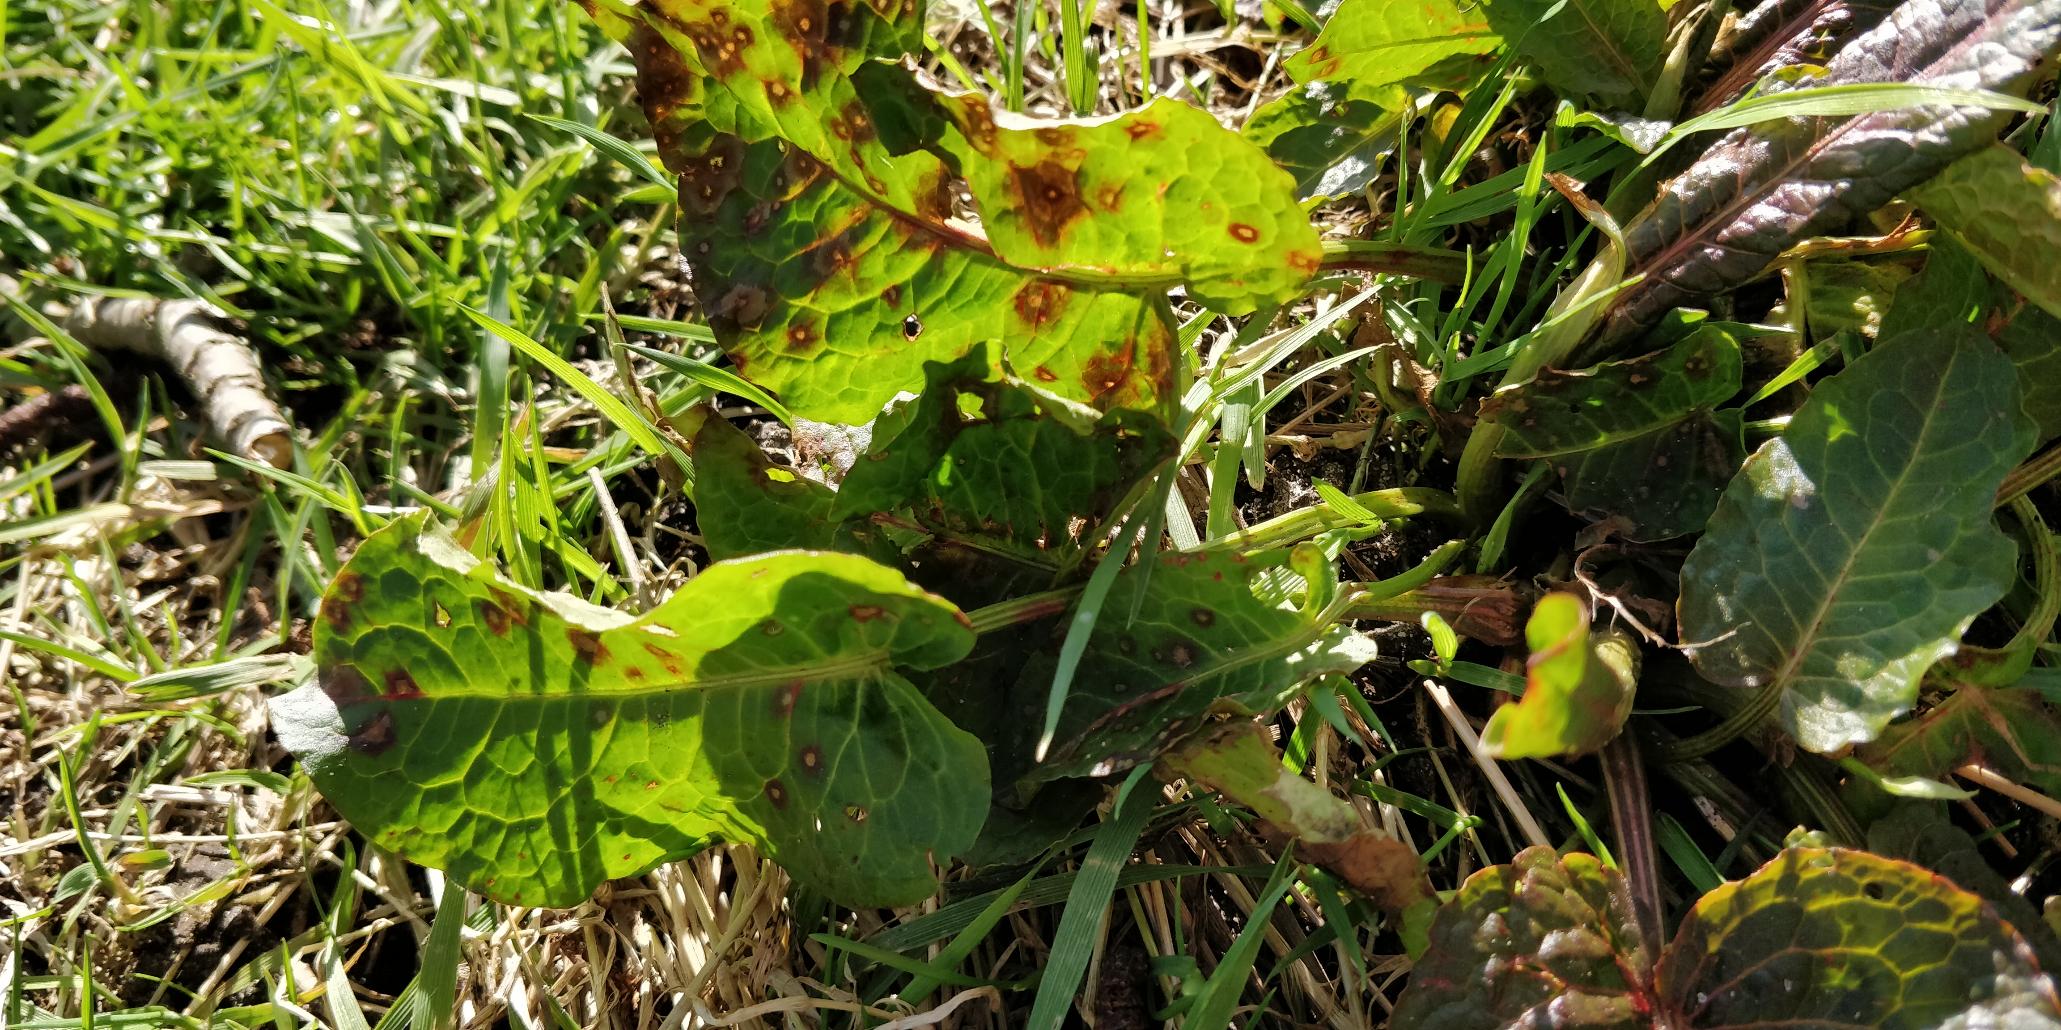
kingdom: Plantae
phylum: Tracheophyta
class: Magnoliopsida
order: Caryophyllales
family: Polygonaceae
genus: Rumex
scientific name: Rumex obtusifolius
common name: Butbladet skræppe
